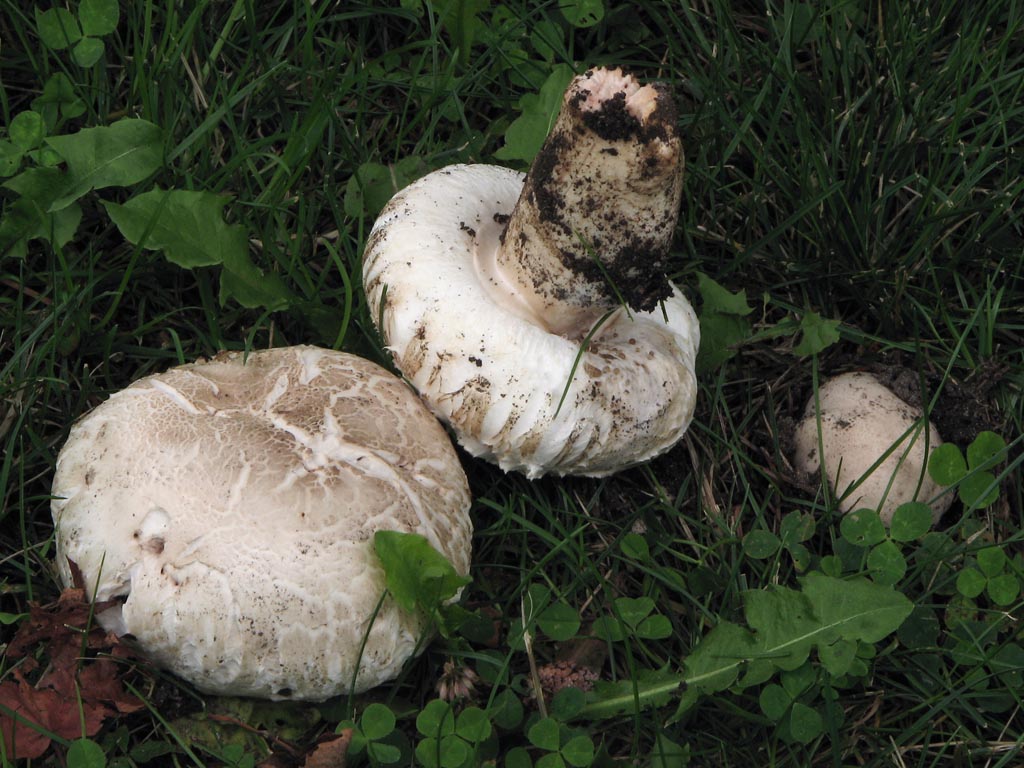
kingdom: Fungi
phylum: Basidiomycota
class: Agaricomycetes
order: Agaricales
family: Agaricaceae
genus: Agaricus
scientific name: Agaricus bernardii
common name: strandengs-champignon
